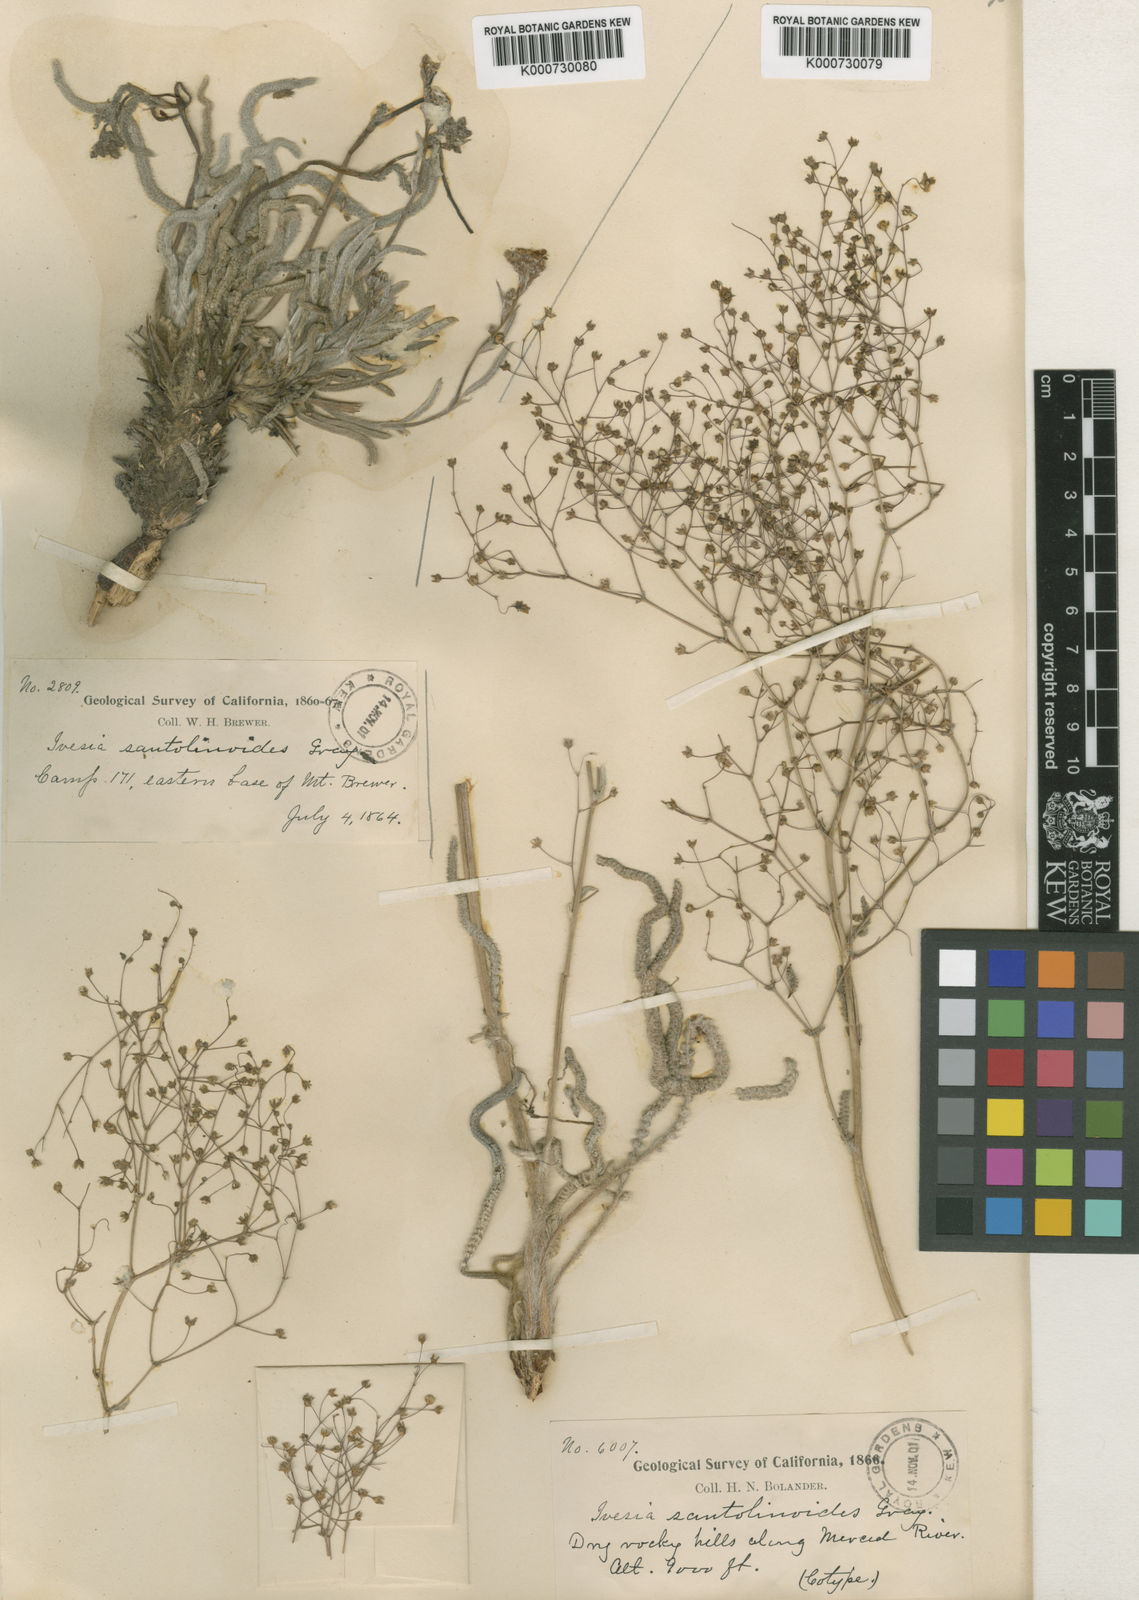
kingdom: Animalia
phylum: Arthropoda
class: Insecta
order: Hemiptera
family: Aphididae
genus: Stellariopsis
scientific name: Stellariopsis
